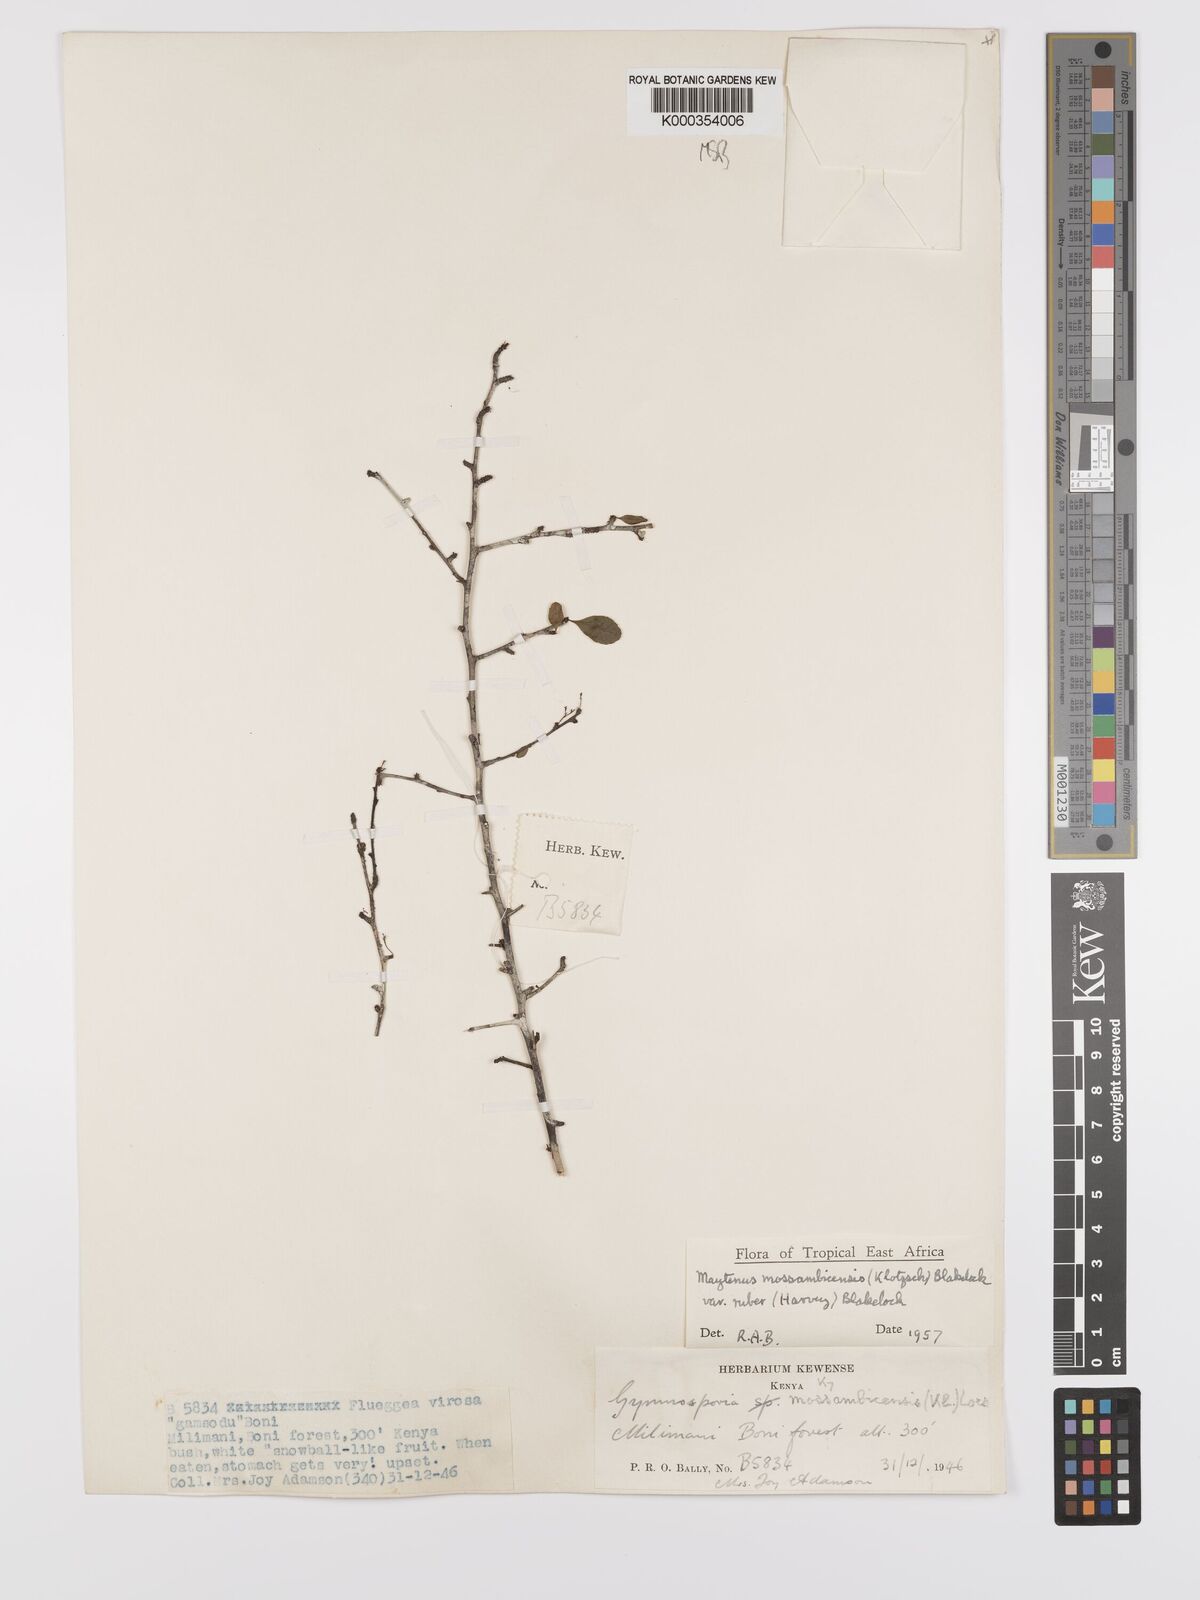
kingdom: Plantae
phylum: Tracheophyta
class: Magnoliopsida
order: Celastrales
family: Celastraceae
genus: Gymnosporia
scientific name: Gymnosporia mossambicensis
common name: Black forest spike-thorn
